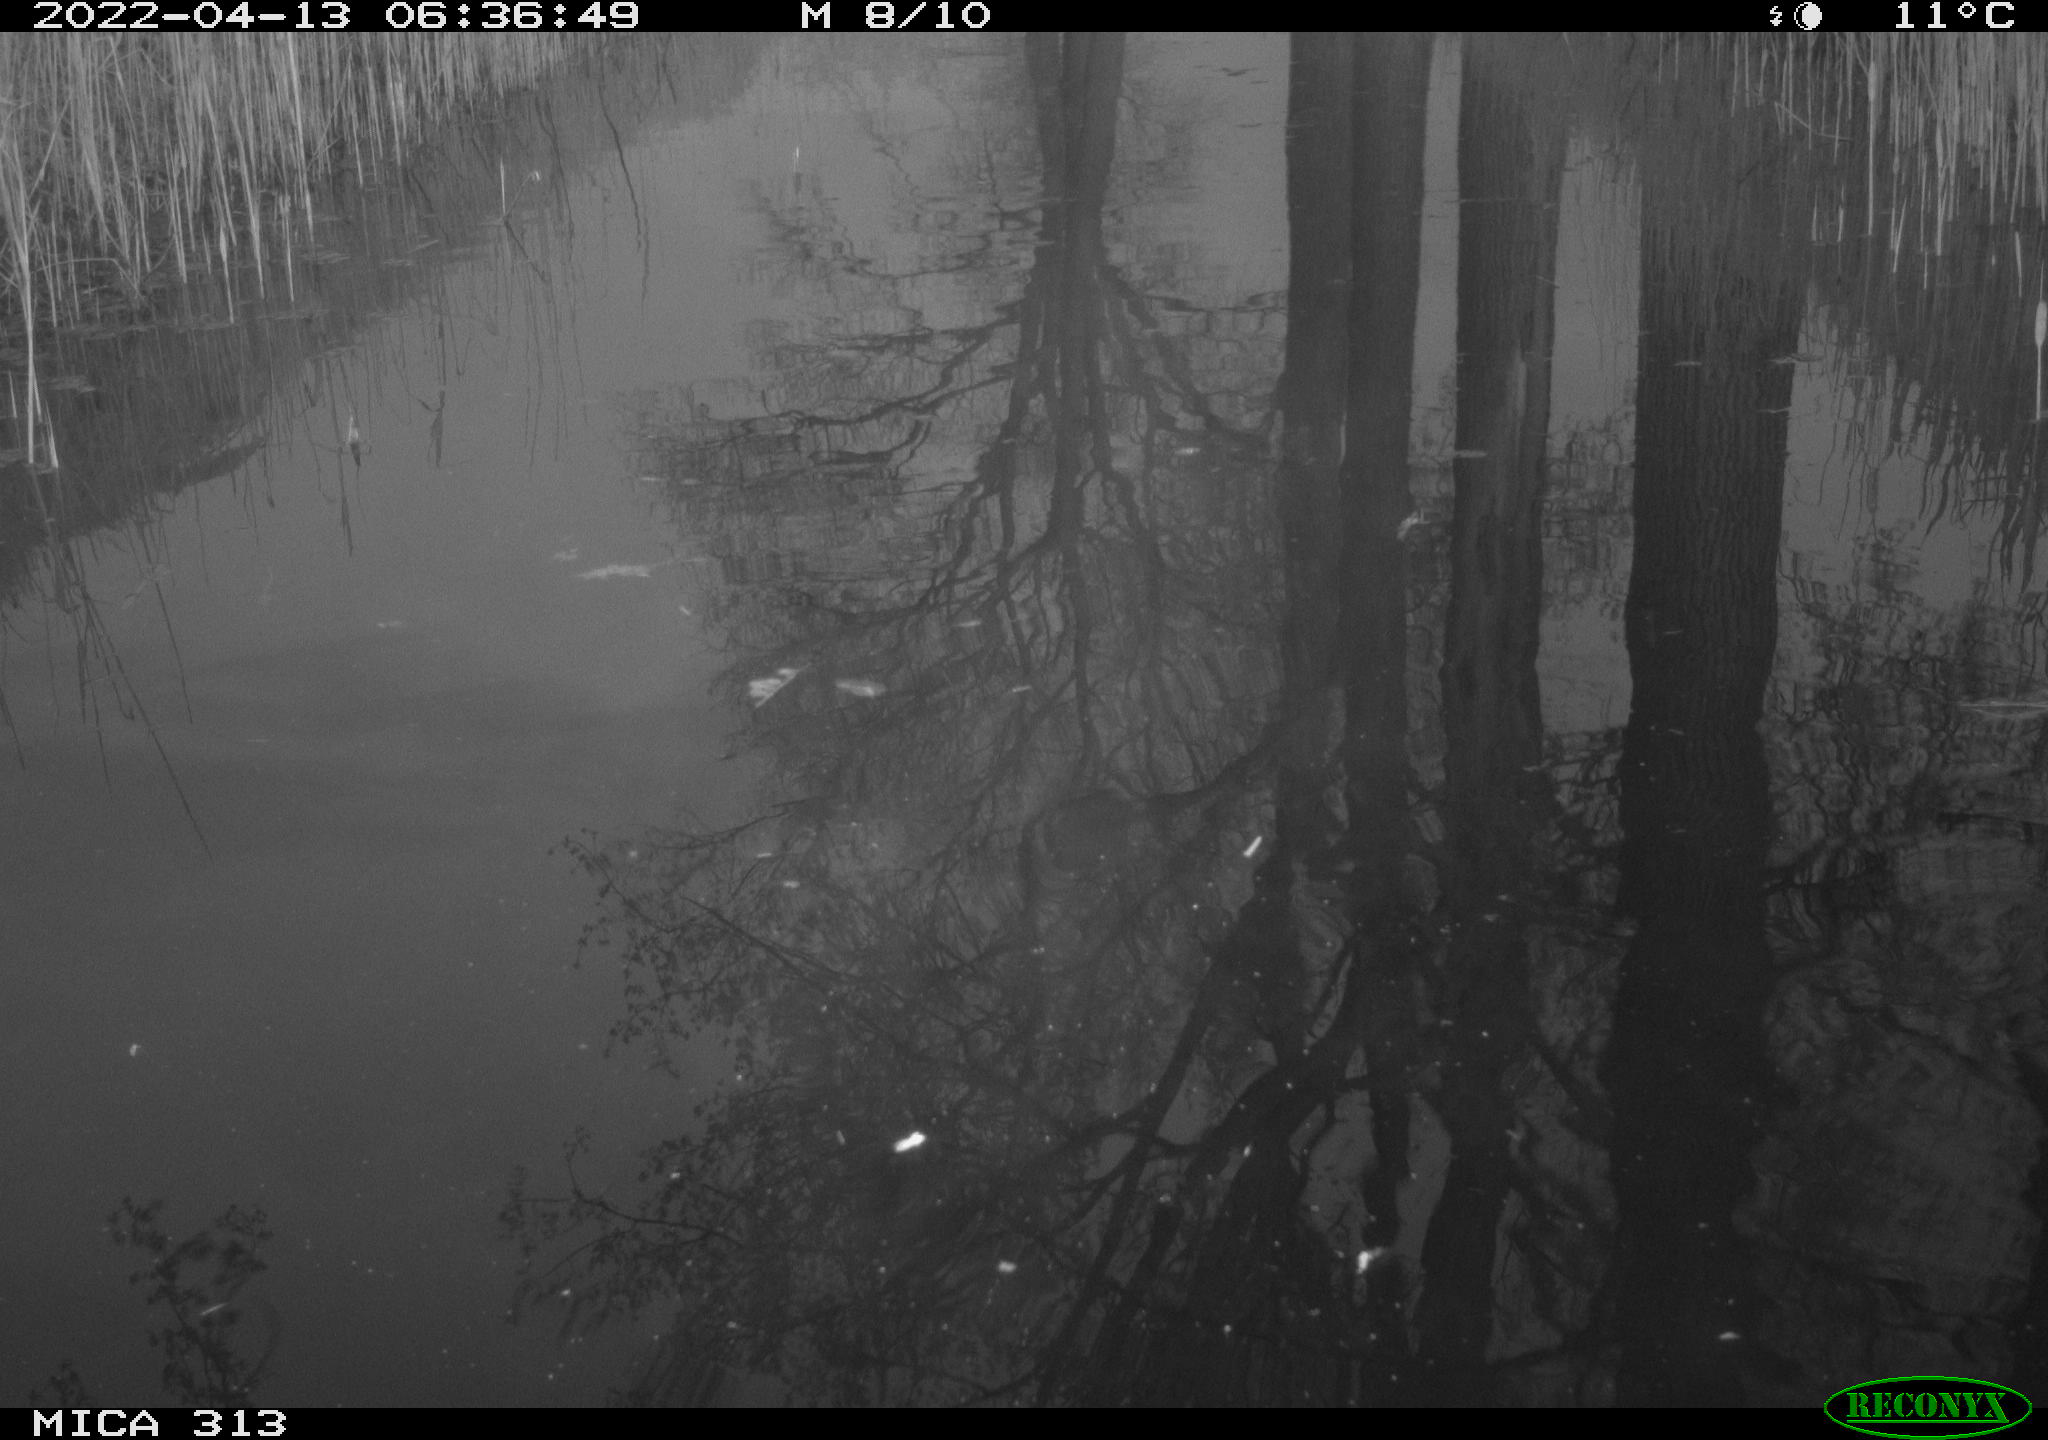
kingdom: Animalia
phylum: Chordata
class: Aves
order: Gruiformes
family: Rallidae
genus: Gallinula
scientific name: Gallinula chloropus
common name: Common moorhen
